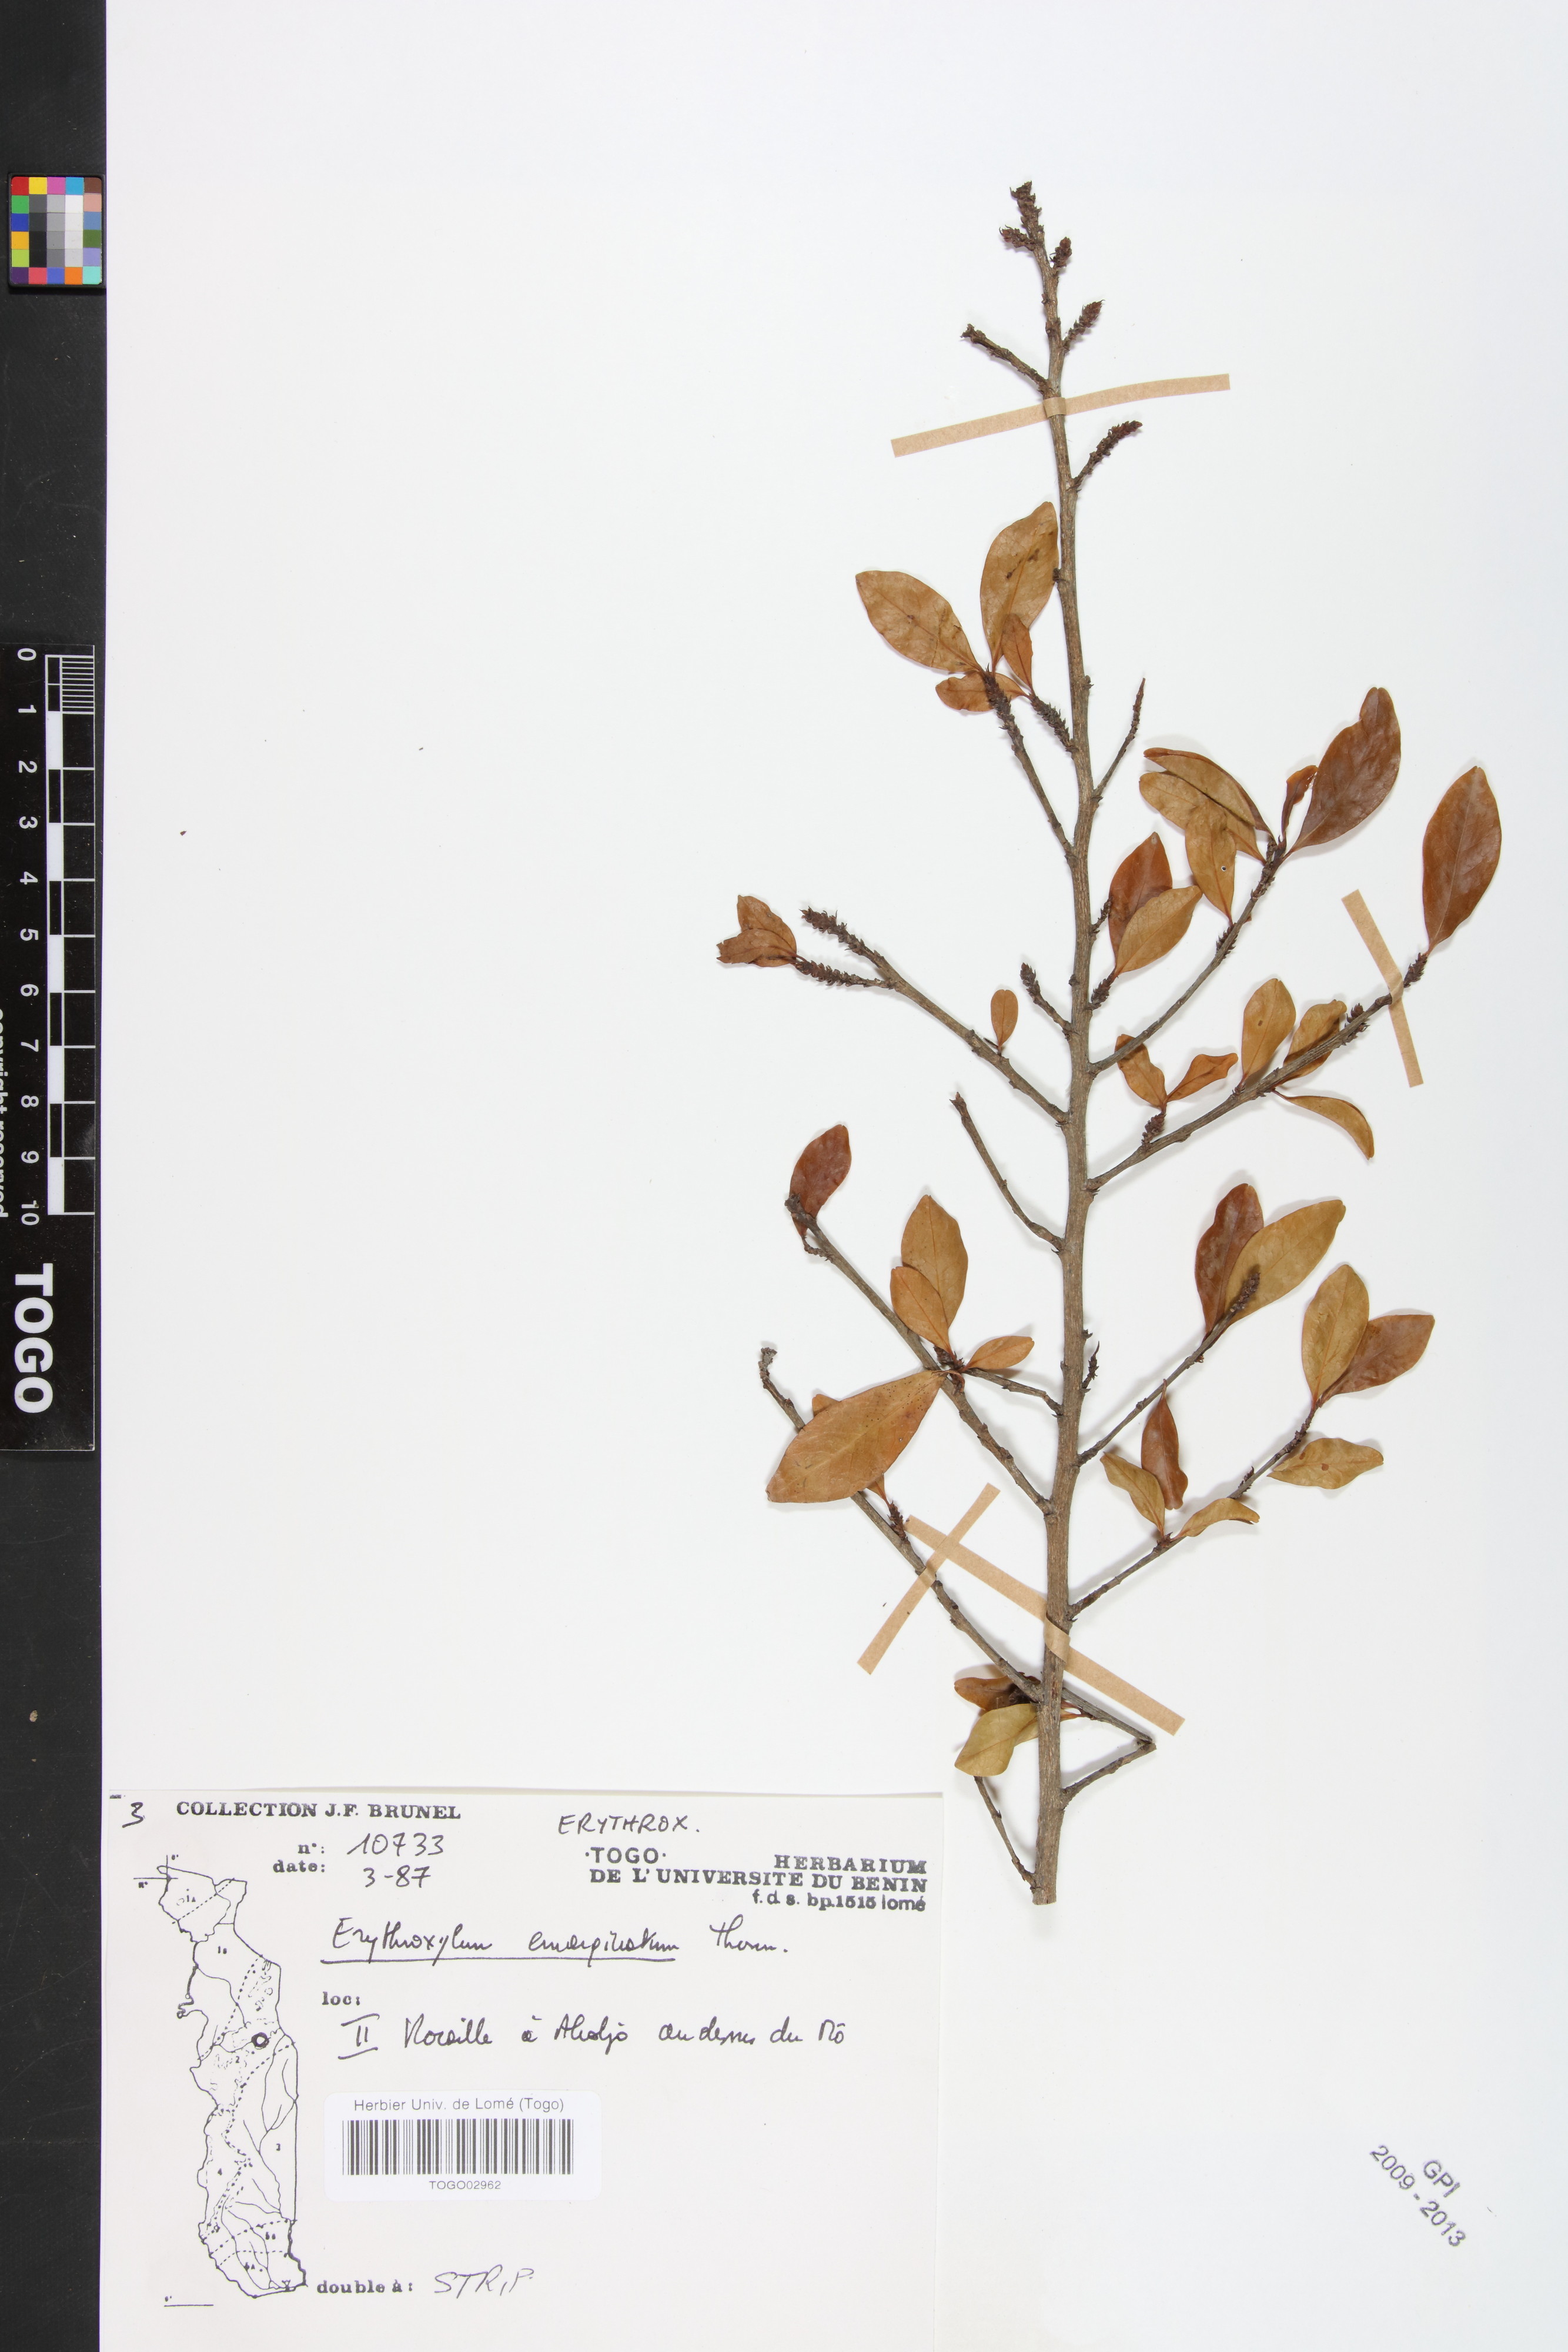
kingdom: Plantae
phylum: Tracheophyta
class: Magnoliopsida
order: Malpighiales
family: Erythroxylaceae
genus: Erythroxylum
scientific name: Erythroxylum emarginatum
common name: African coca-tree
